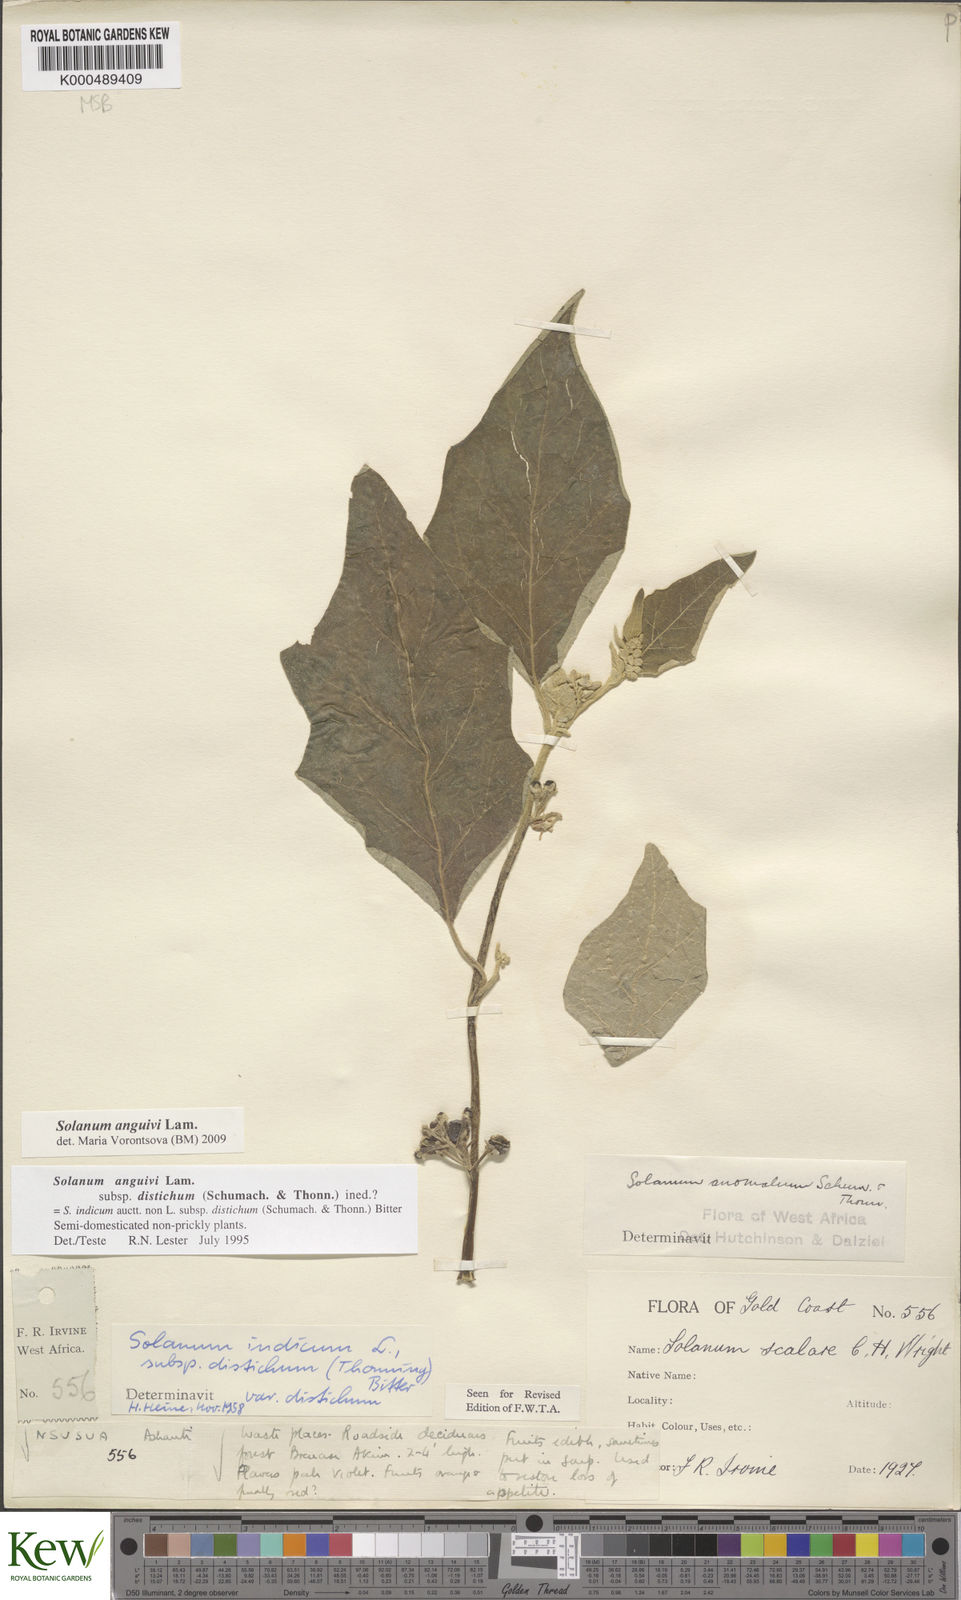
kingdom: Plantae
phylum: Tracheophyta
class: Magnoliopsida
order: Solanales
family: Solanaceae
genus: Solanum
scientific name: Solanum anguivi
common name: Forest bitterberry
